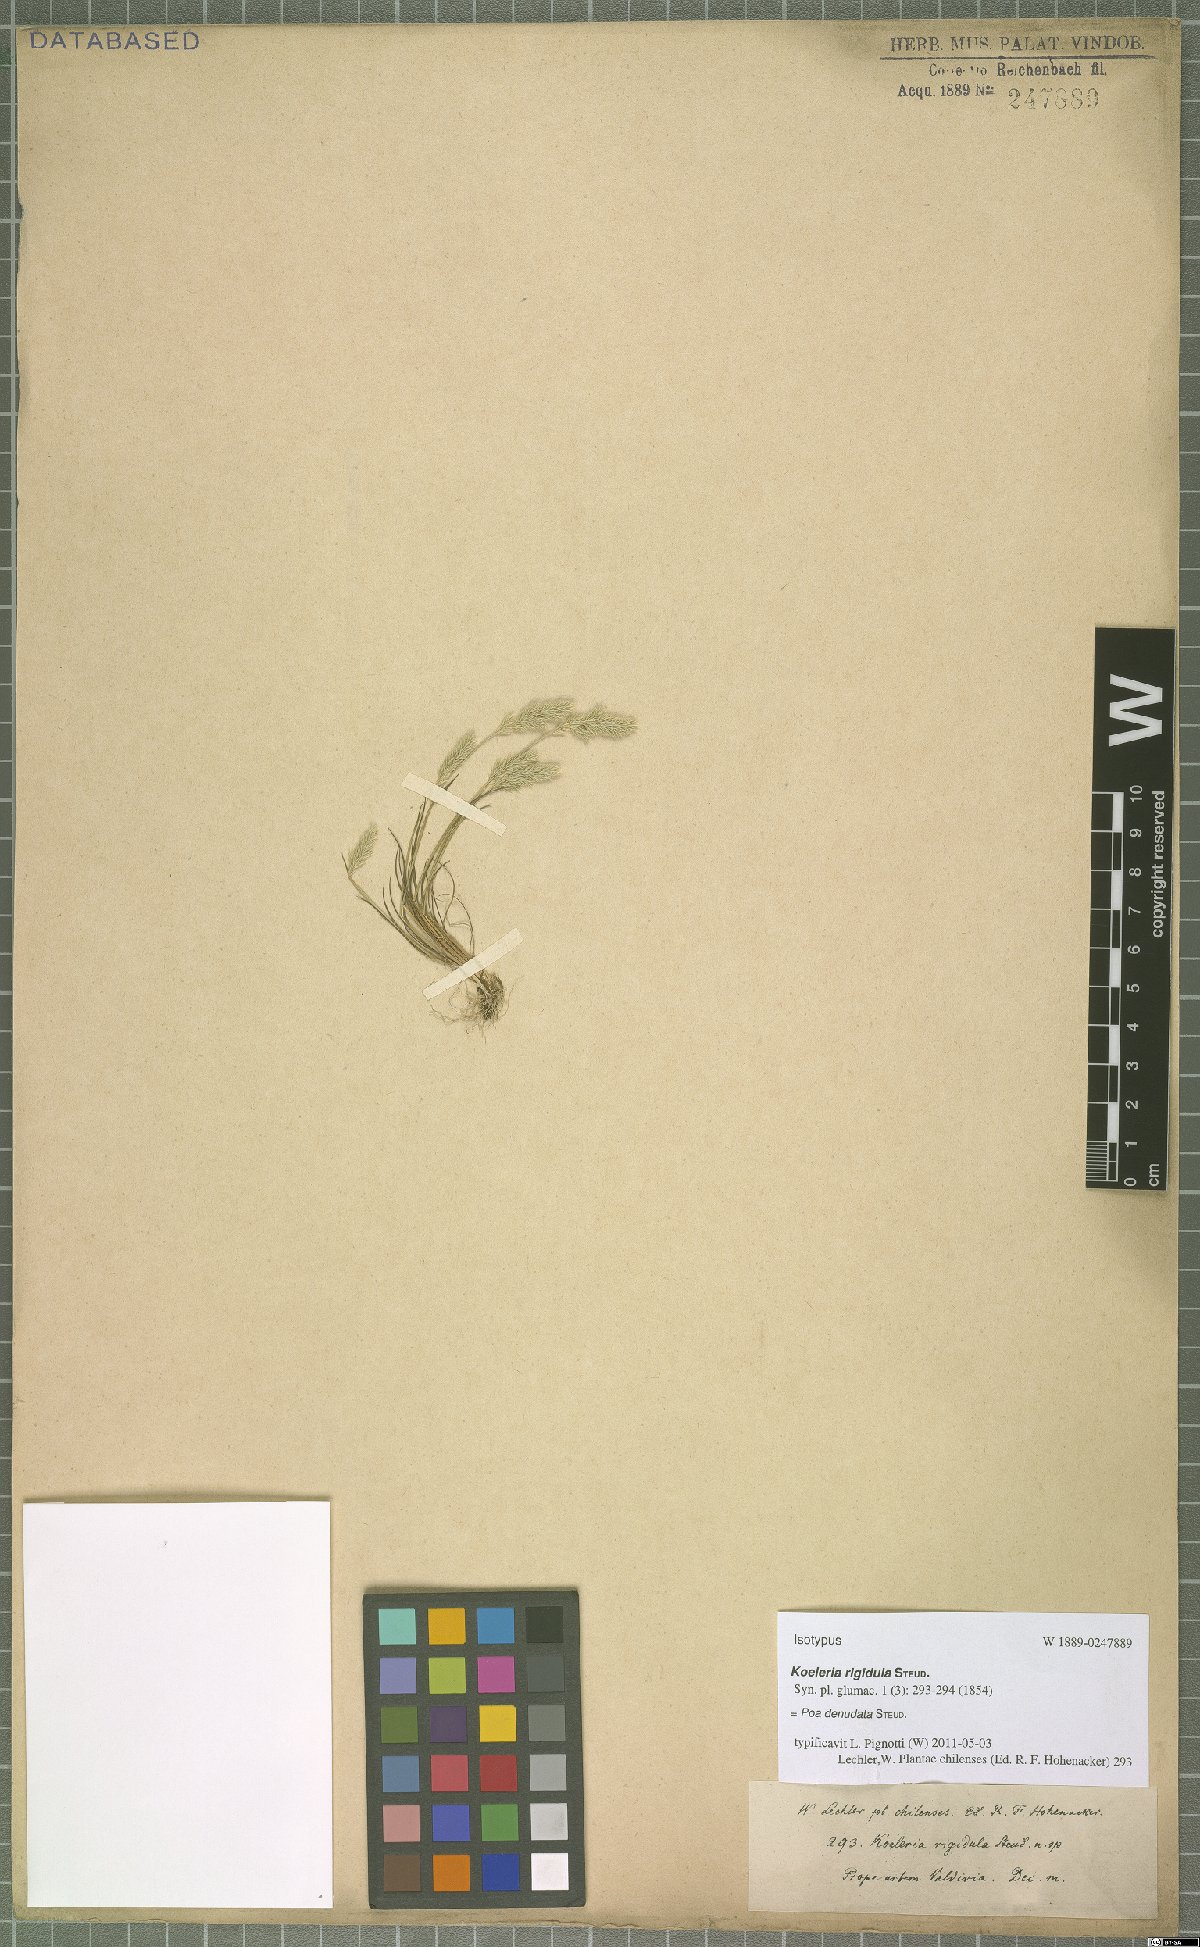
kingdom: Plantae
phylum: Tracheophyta
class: Liliopsida
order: Poales
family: Poaceae
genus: Poa
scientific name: Poa denudata
